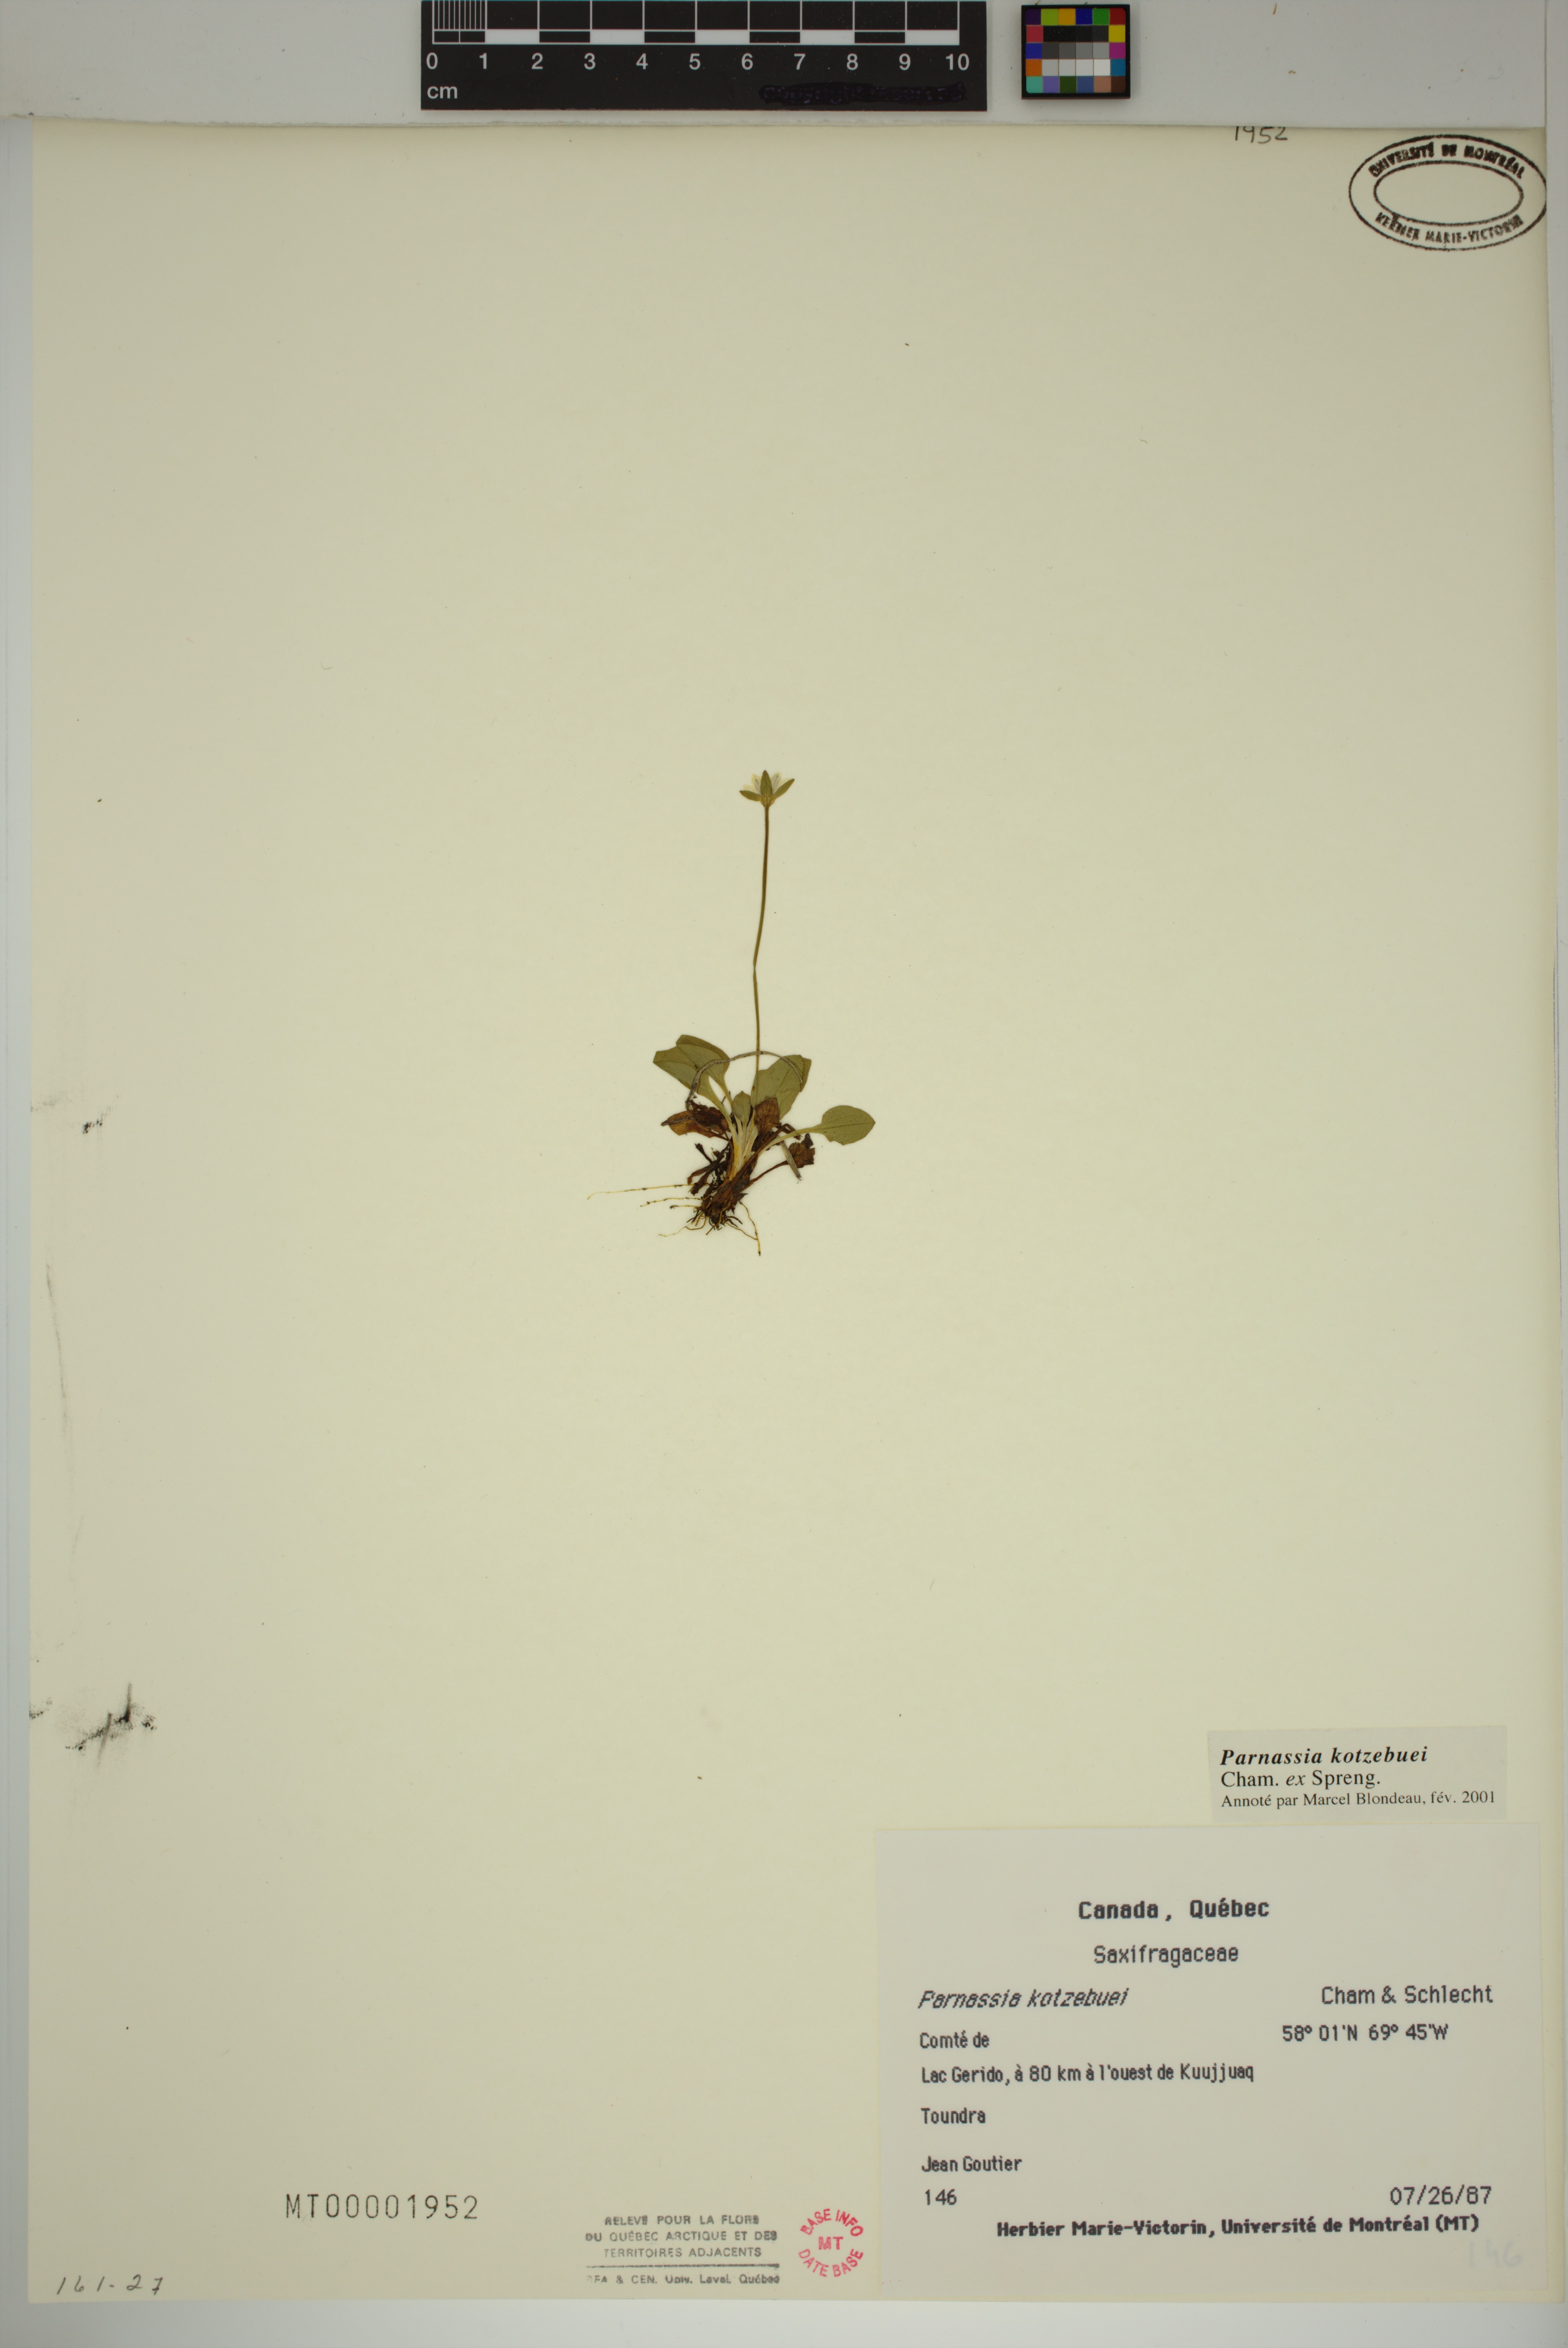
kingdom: Plantae
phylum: Tracheophyta
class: Magnoliopsida
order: Celastrales
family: Parnassiaceae
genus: Parnassia
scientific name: Parnassia kotzebuei
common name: Kotzebue's grass-of-parnassus
